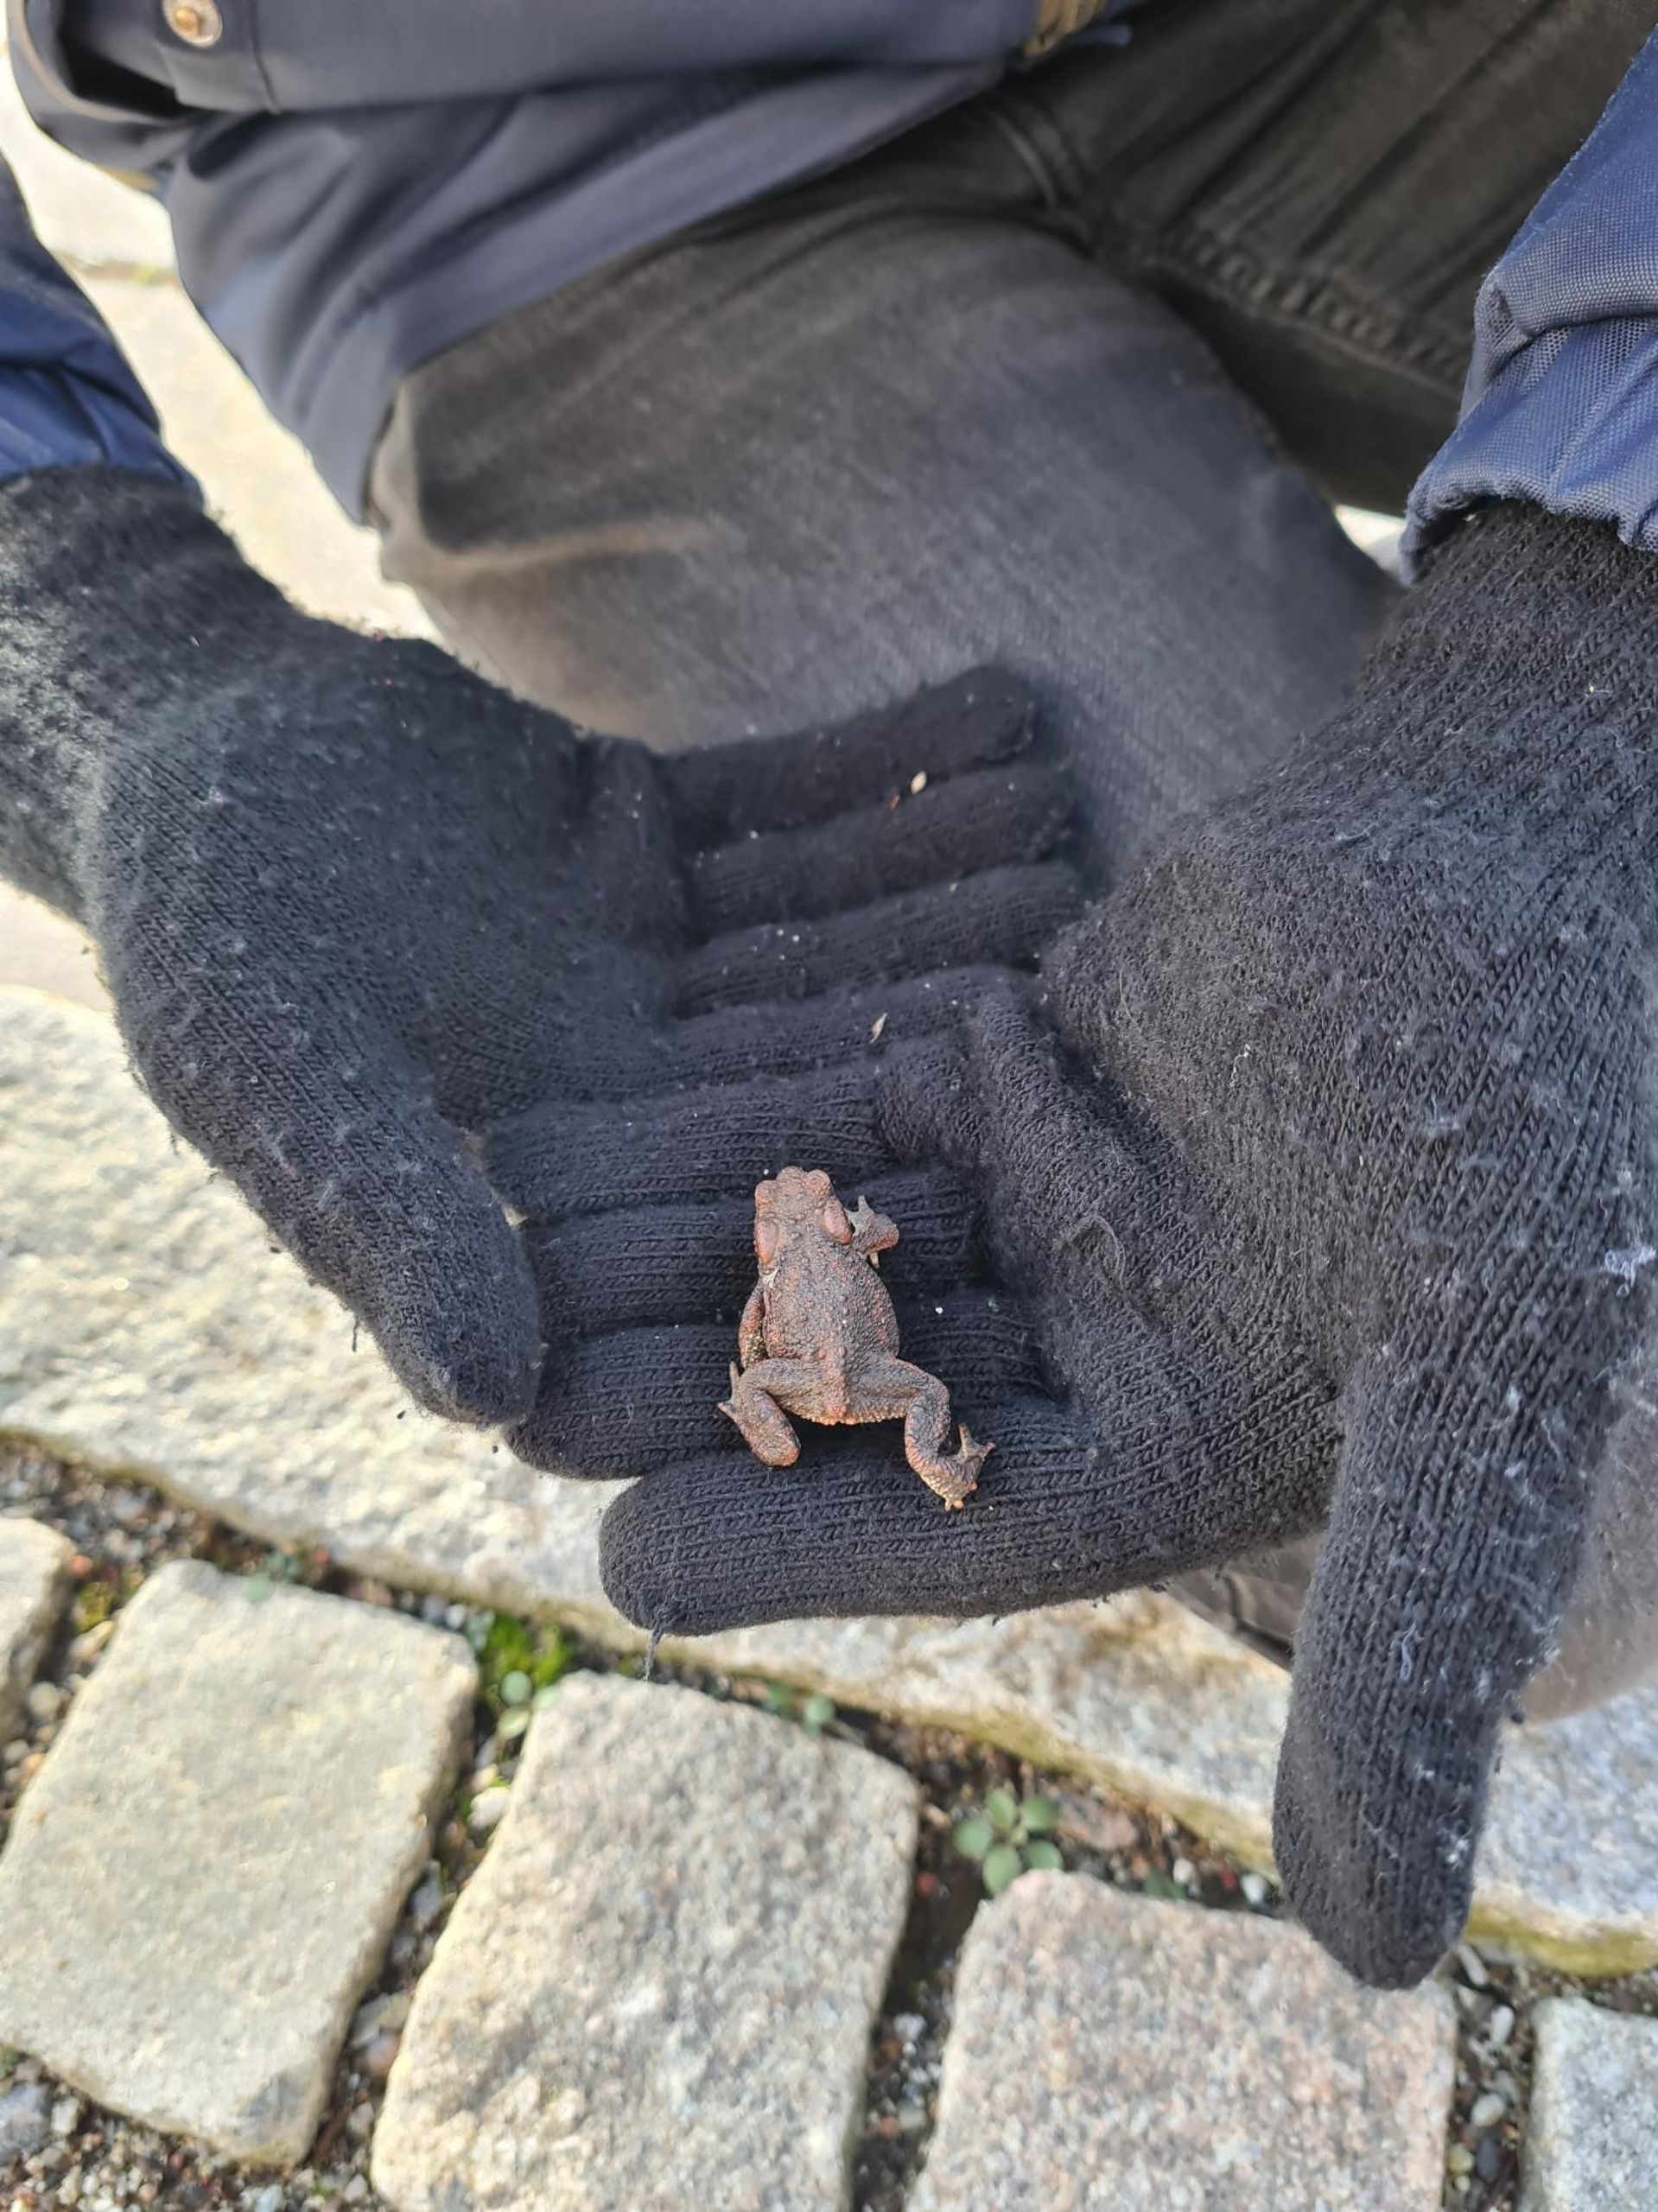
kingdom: Animalia
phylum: Chordata
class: Amphibia
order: Anura
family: Bufonidae
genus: Bufo
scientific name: Bufo bufo
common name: Skrubtudse
